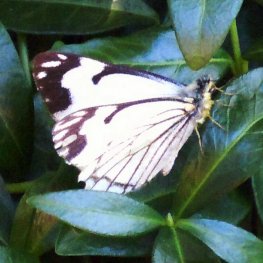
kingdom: Animalia
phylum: Arthropoda
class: Insecta
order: Lepidoptera
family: Pieridae
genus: Neophasia
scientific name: Neophasia menapia
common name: Pine White
